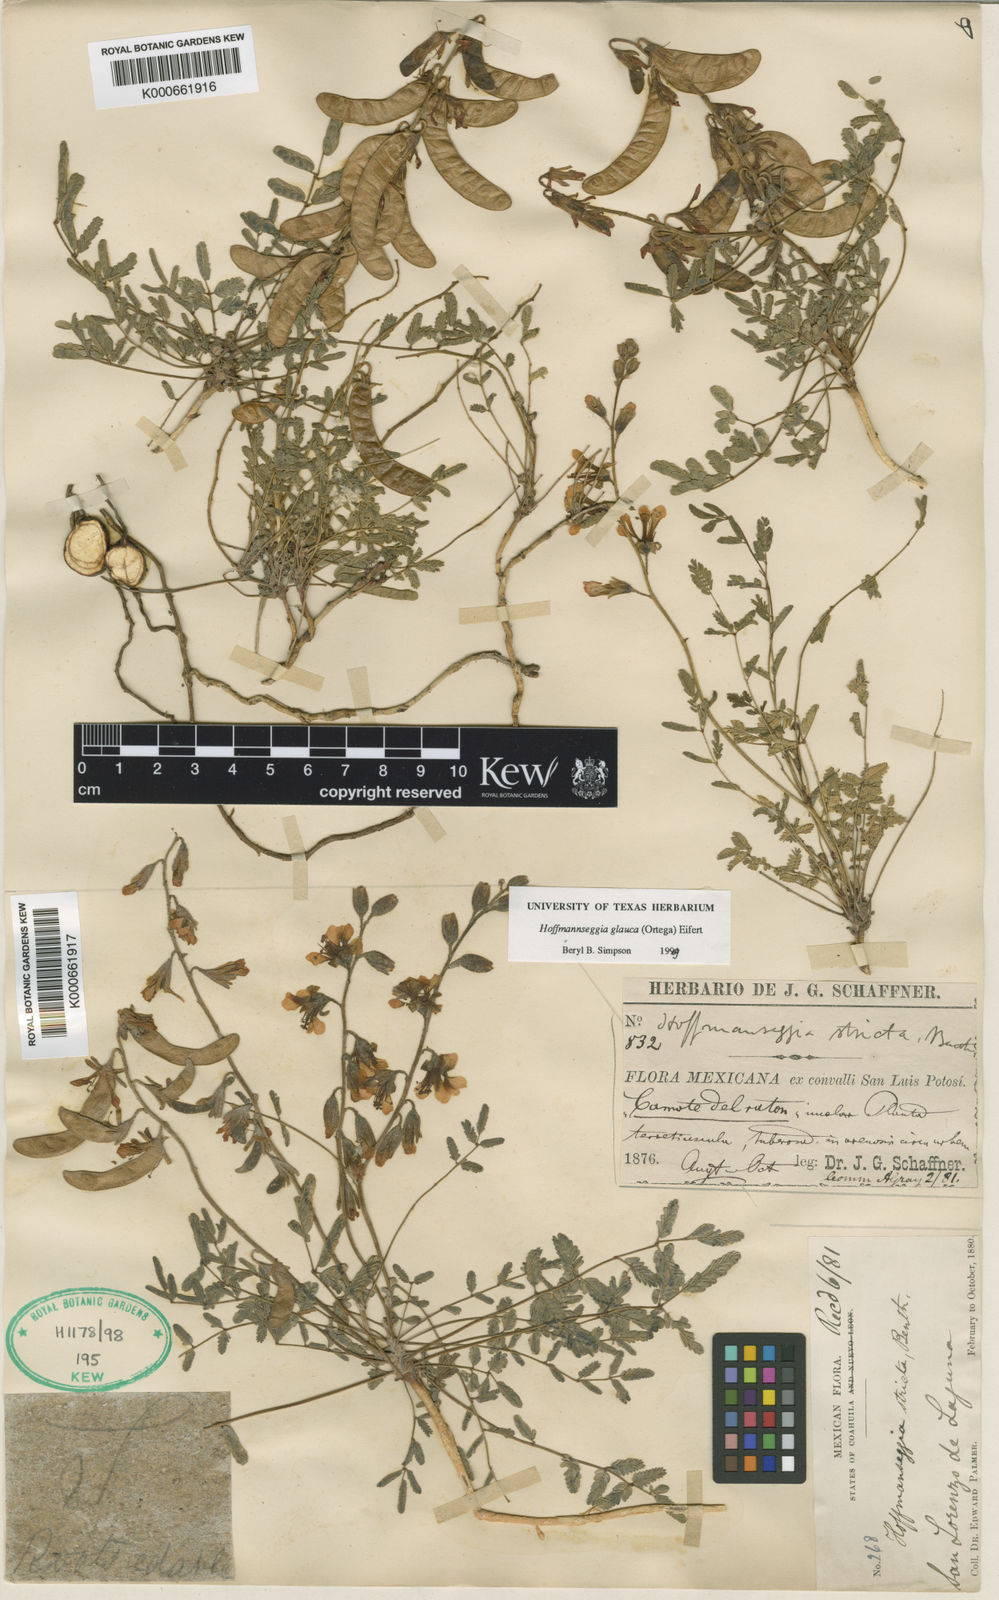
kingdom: Plantae
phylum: Tracheophyta
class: Magnoliopsida
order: Fabales
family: Fabaceae
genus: Hoffmannseggia
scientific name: Hoffmannseggia glauca
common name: Pignut
